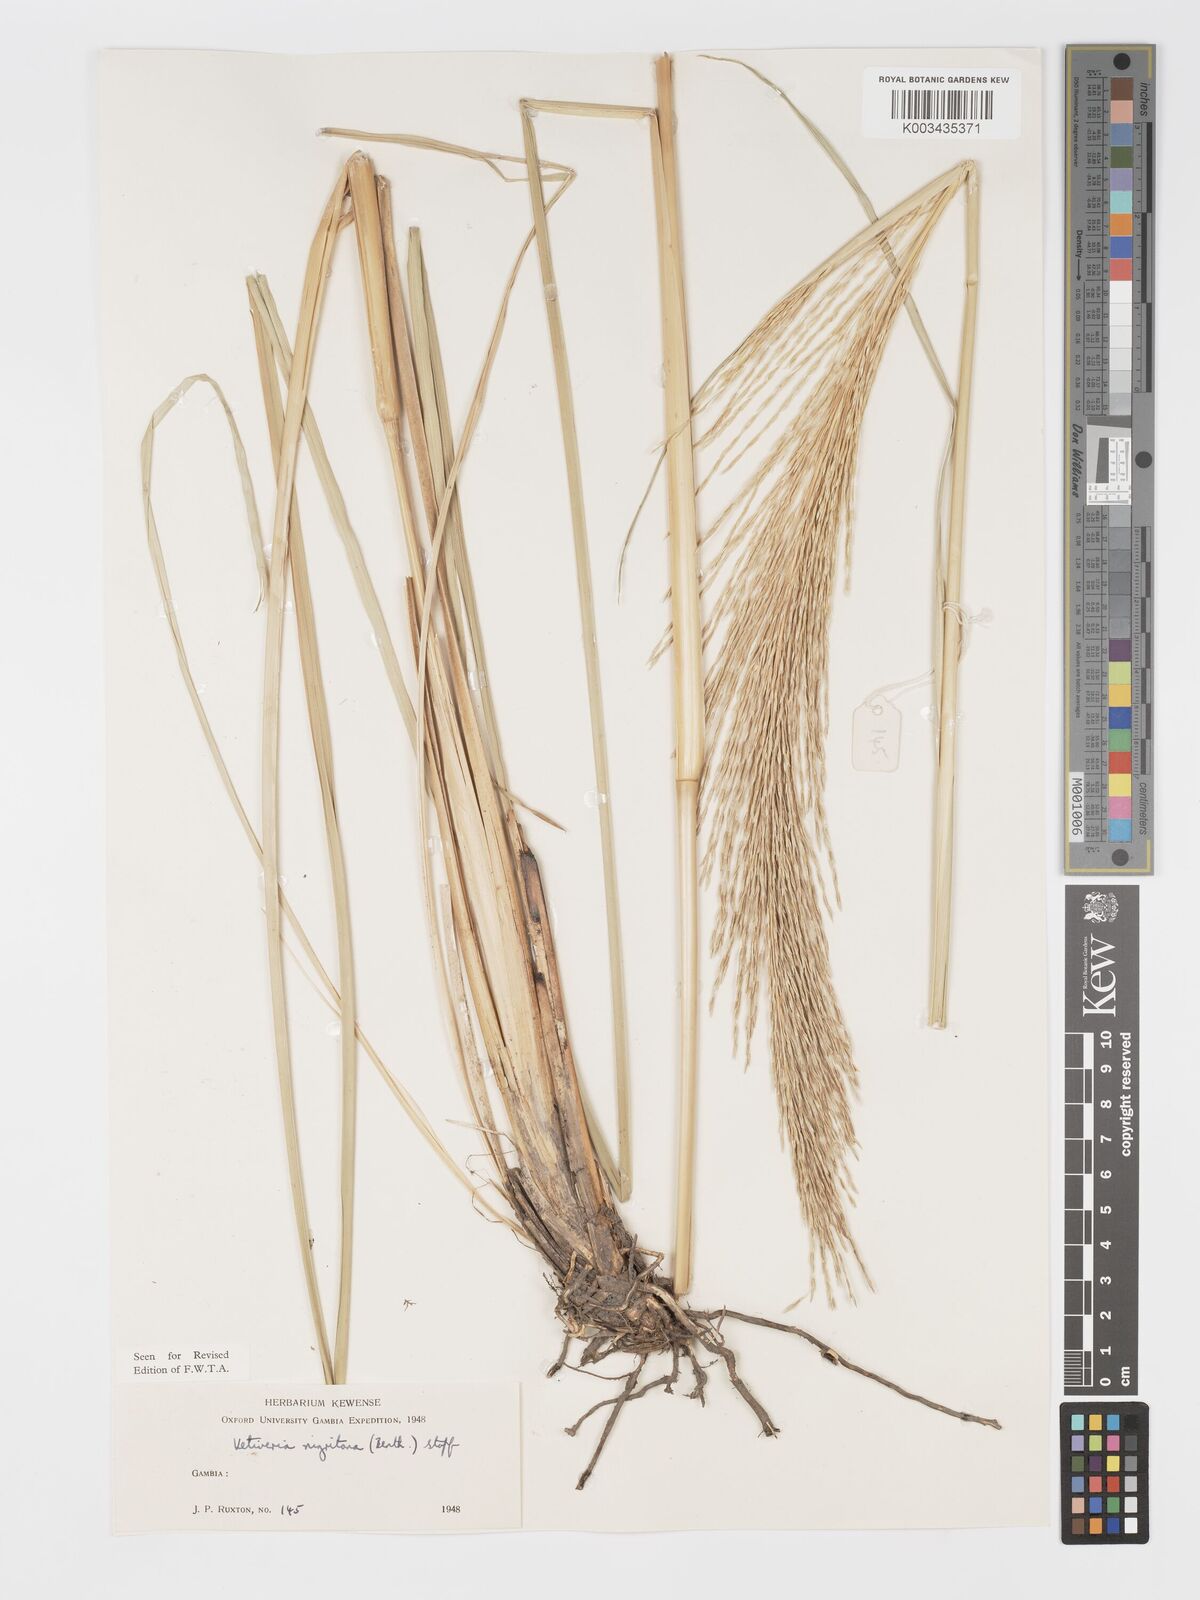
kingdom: Plantae
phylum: Tracheophyta
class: Liliopsida
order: Poales
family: Poaceae
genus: Chrysopogon
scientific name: Chrysopogon nigritanus
